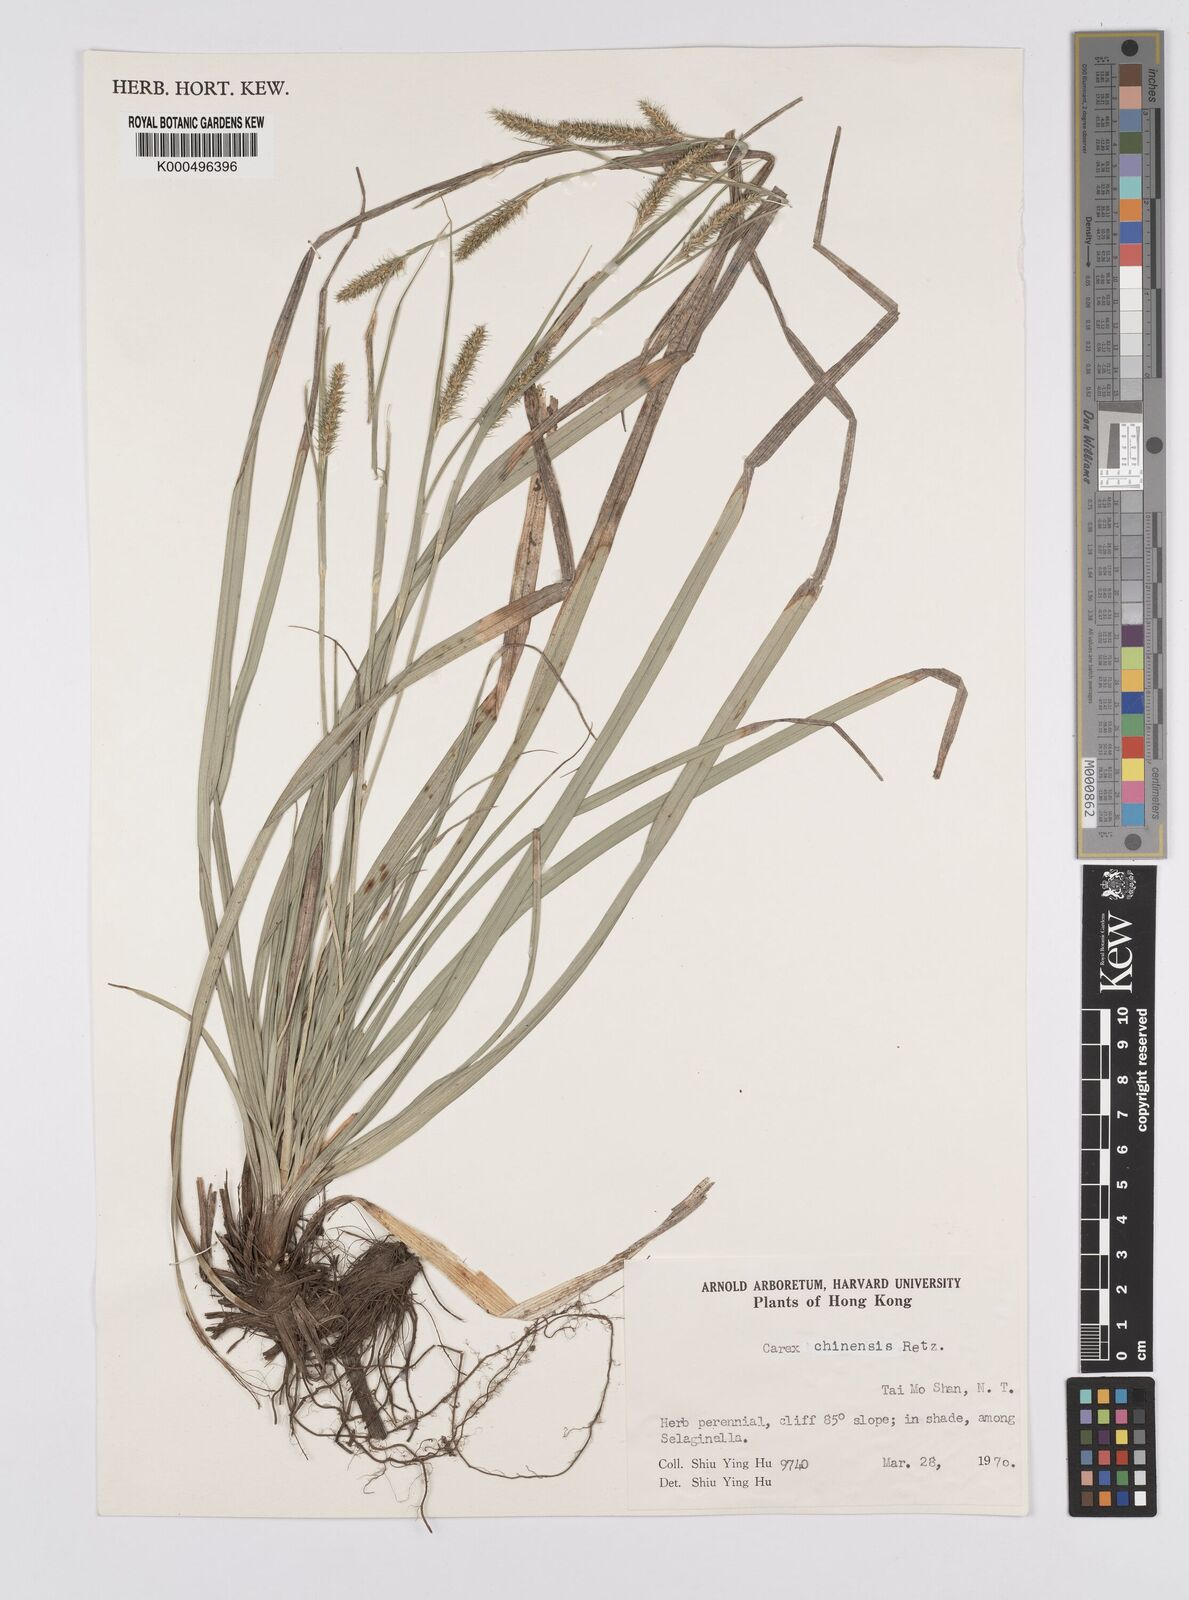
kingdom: Plantae
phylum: Tracheophyta
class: Liliopsida
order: Poales
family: Cyperaceae
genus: Carex
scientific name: Carex chinensis
